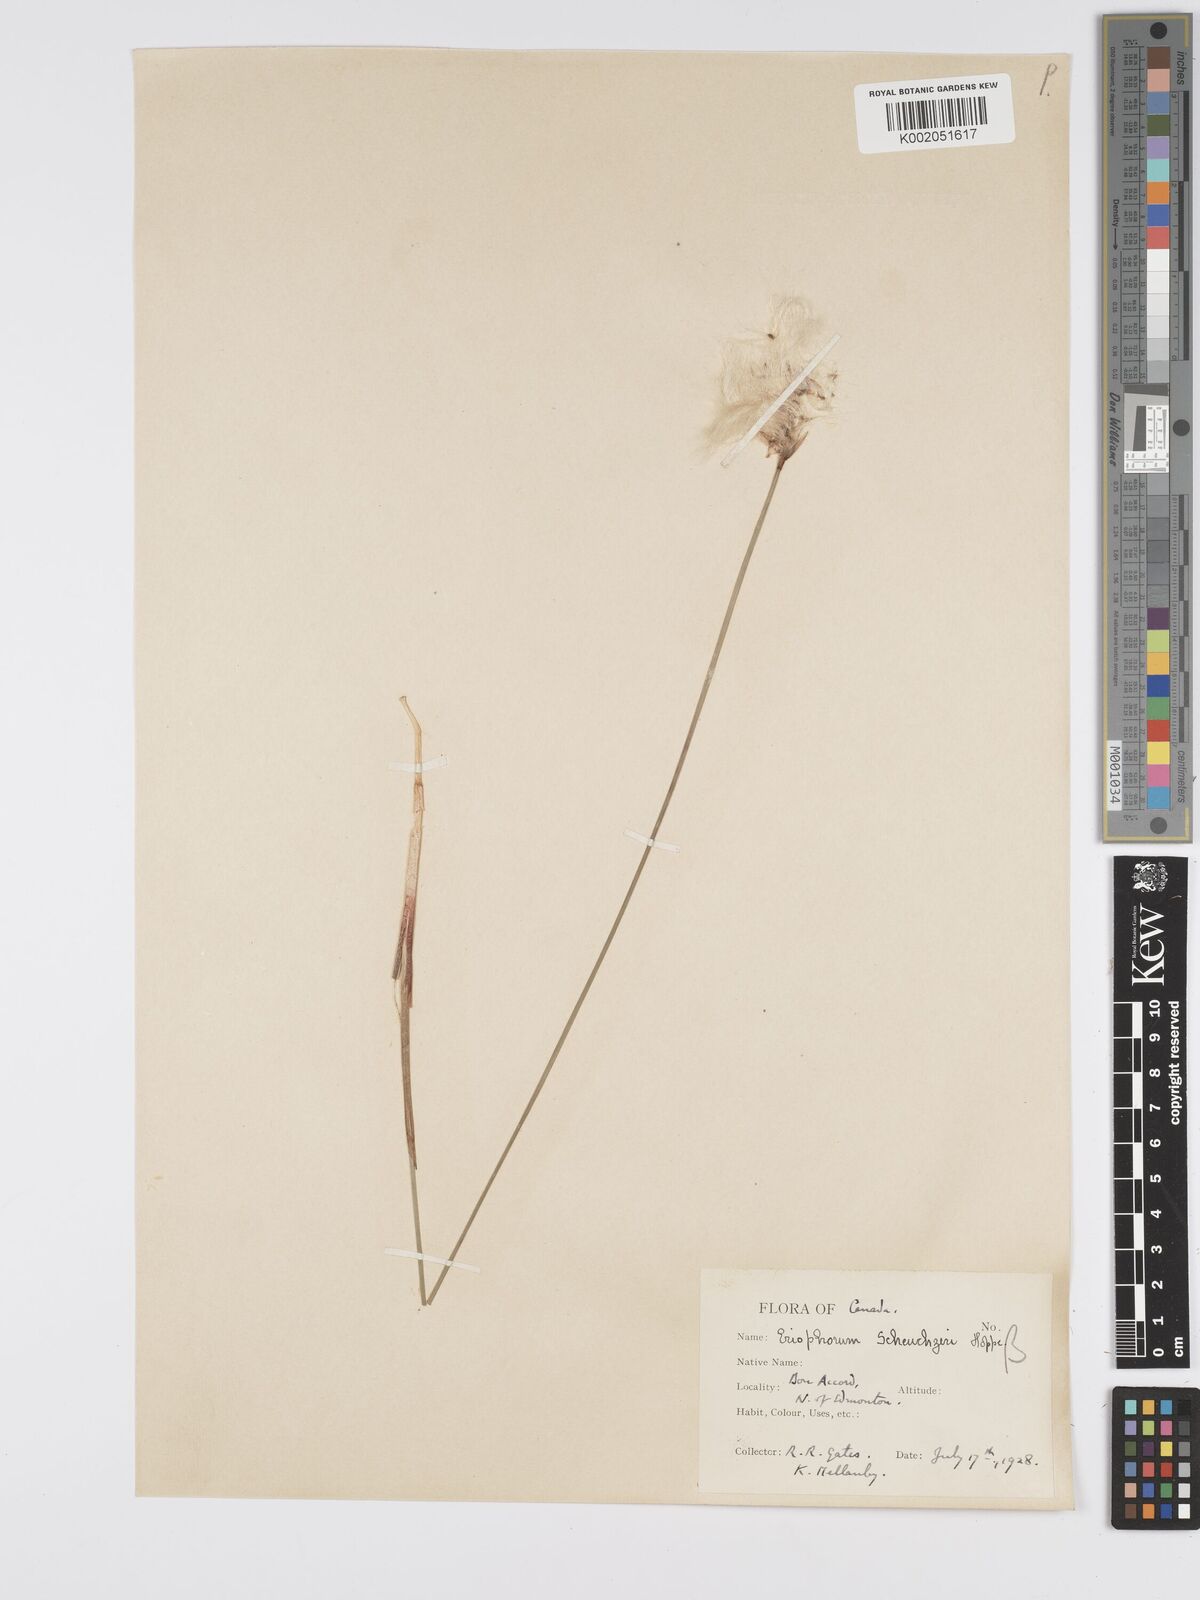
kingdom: Plantae
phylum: Tracheophyta
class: Liliopsida
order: Poales
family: Cyperaceae
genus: Eriophorum
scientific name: Eriophorum scheuchzeri
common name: Scheuchzer's cottongrass
